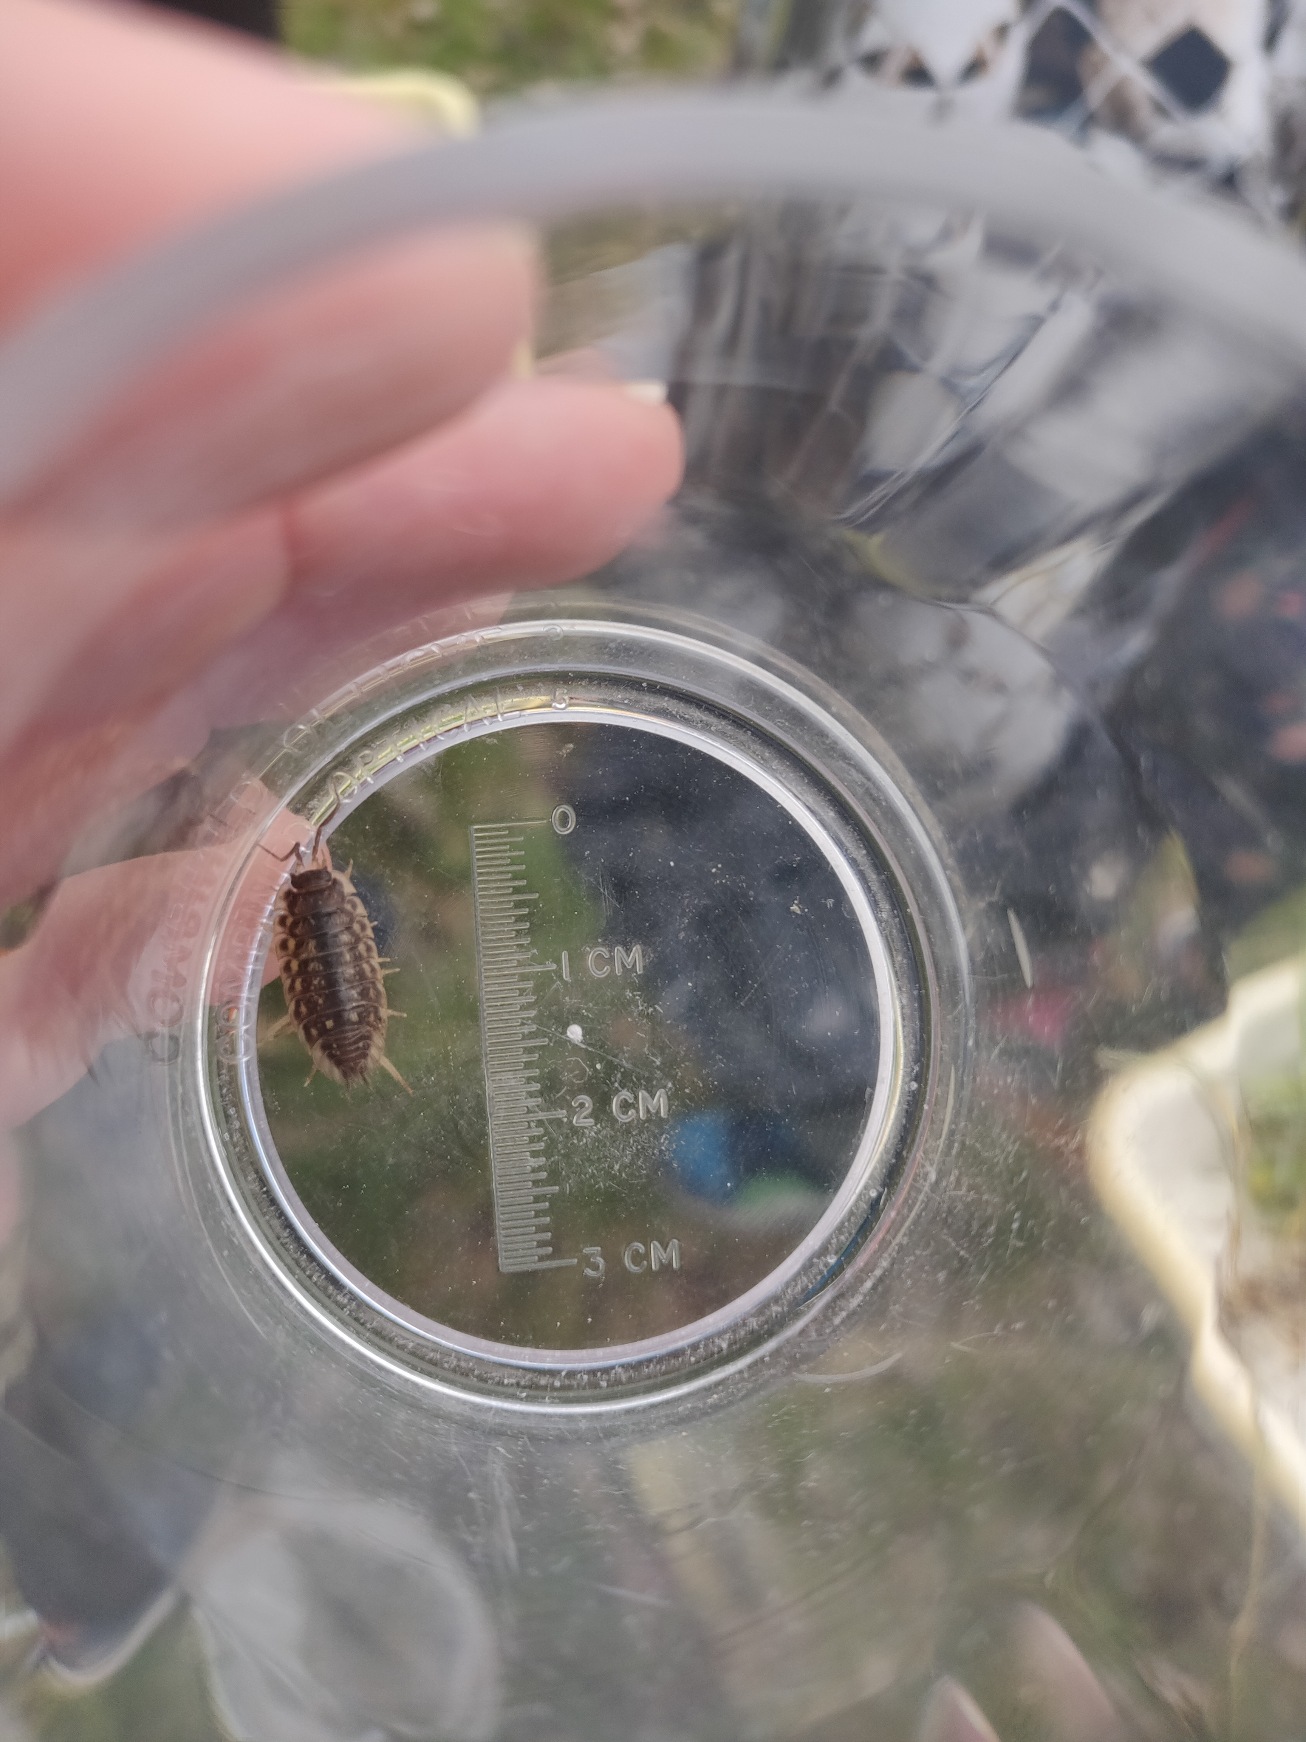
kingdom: Animalia
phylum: Arthropoda
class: Malacostraca
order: Isopoda
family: Oniscidae
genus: Oniscus
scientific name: Oniscus asellus
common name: Glat bænkebider
